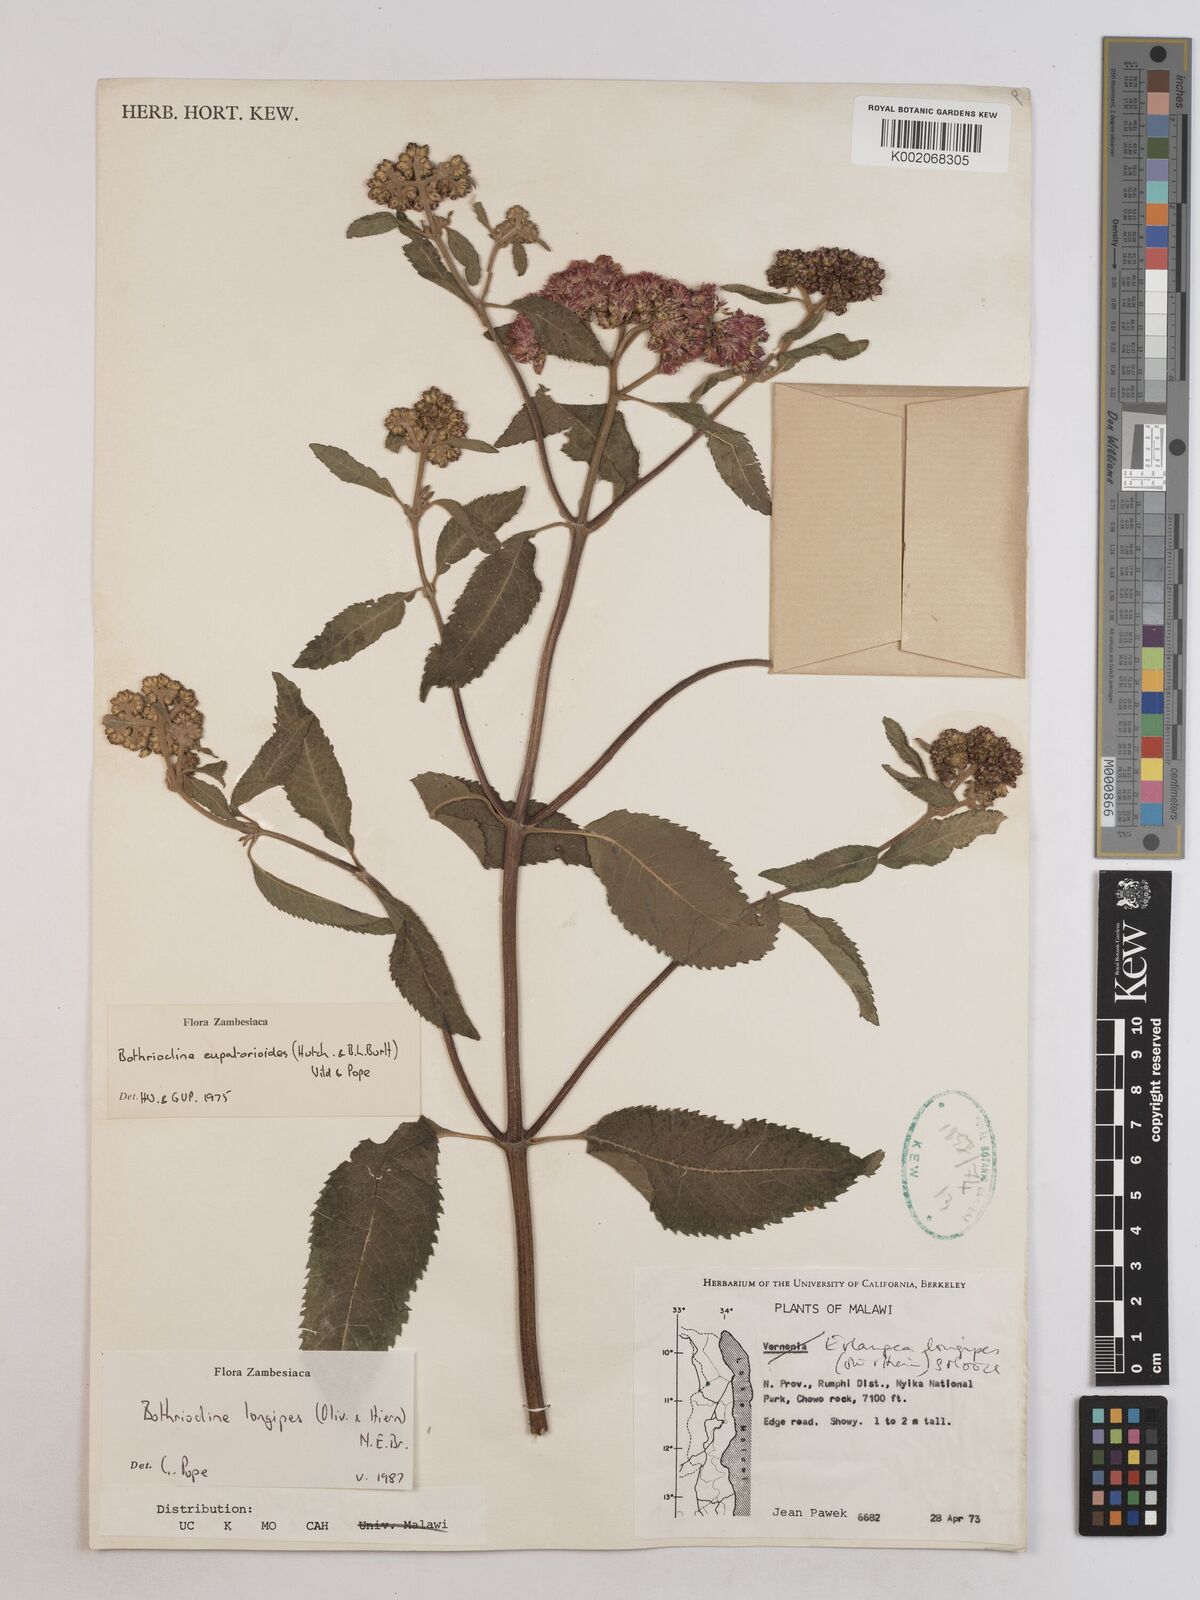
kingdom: Plantae
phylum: Tracheophyta
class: Magnoliopsida
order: Asterales
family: Asteraceae
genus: Bothriocline
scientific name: Bothriocline longipes
